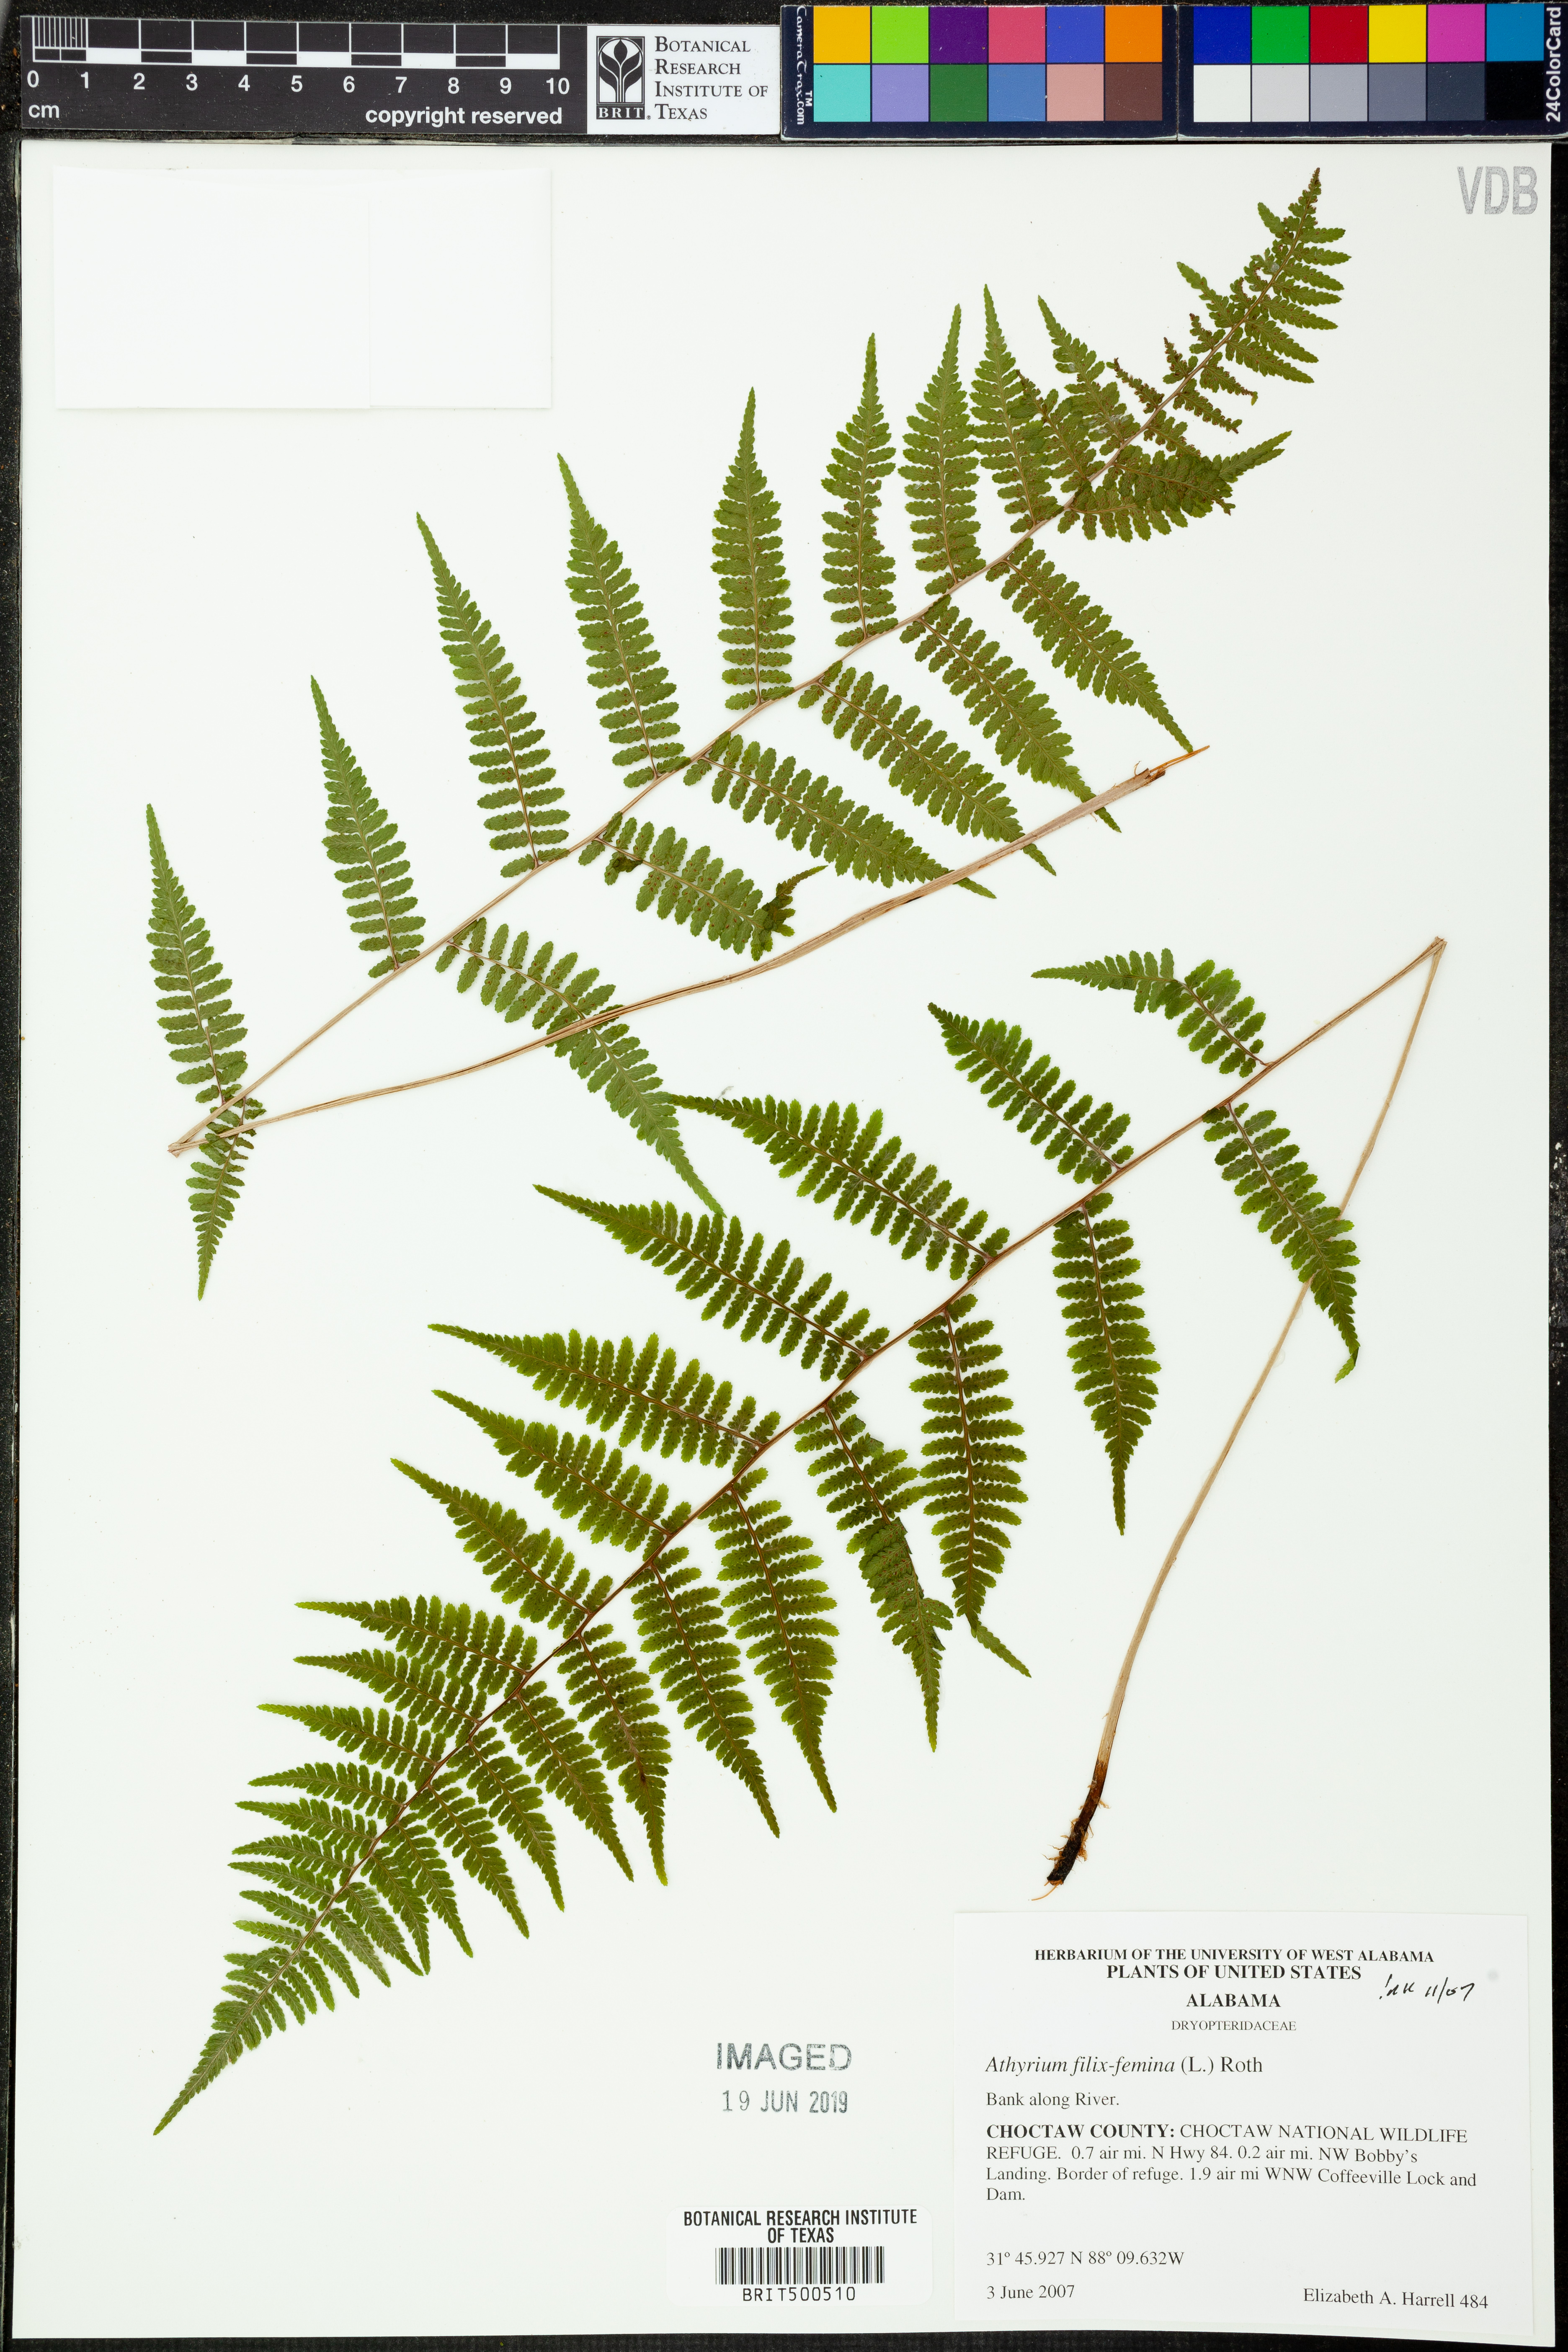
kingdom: Plantae
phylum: Tracheophyta
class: Polypodiopsida
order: Polypodiales
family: Athyriaceae
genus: Athyrium
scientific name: Athyrium filix-femina
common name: Lady fern
